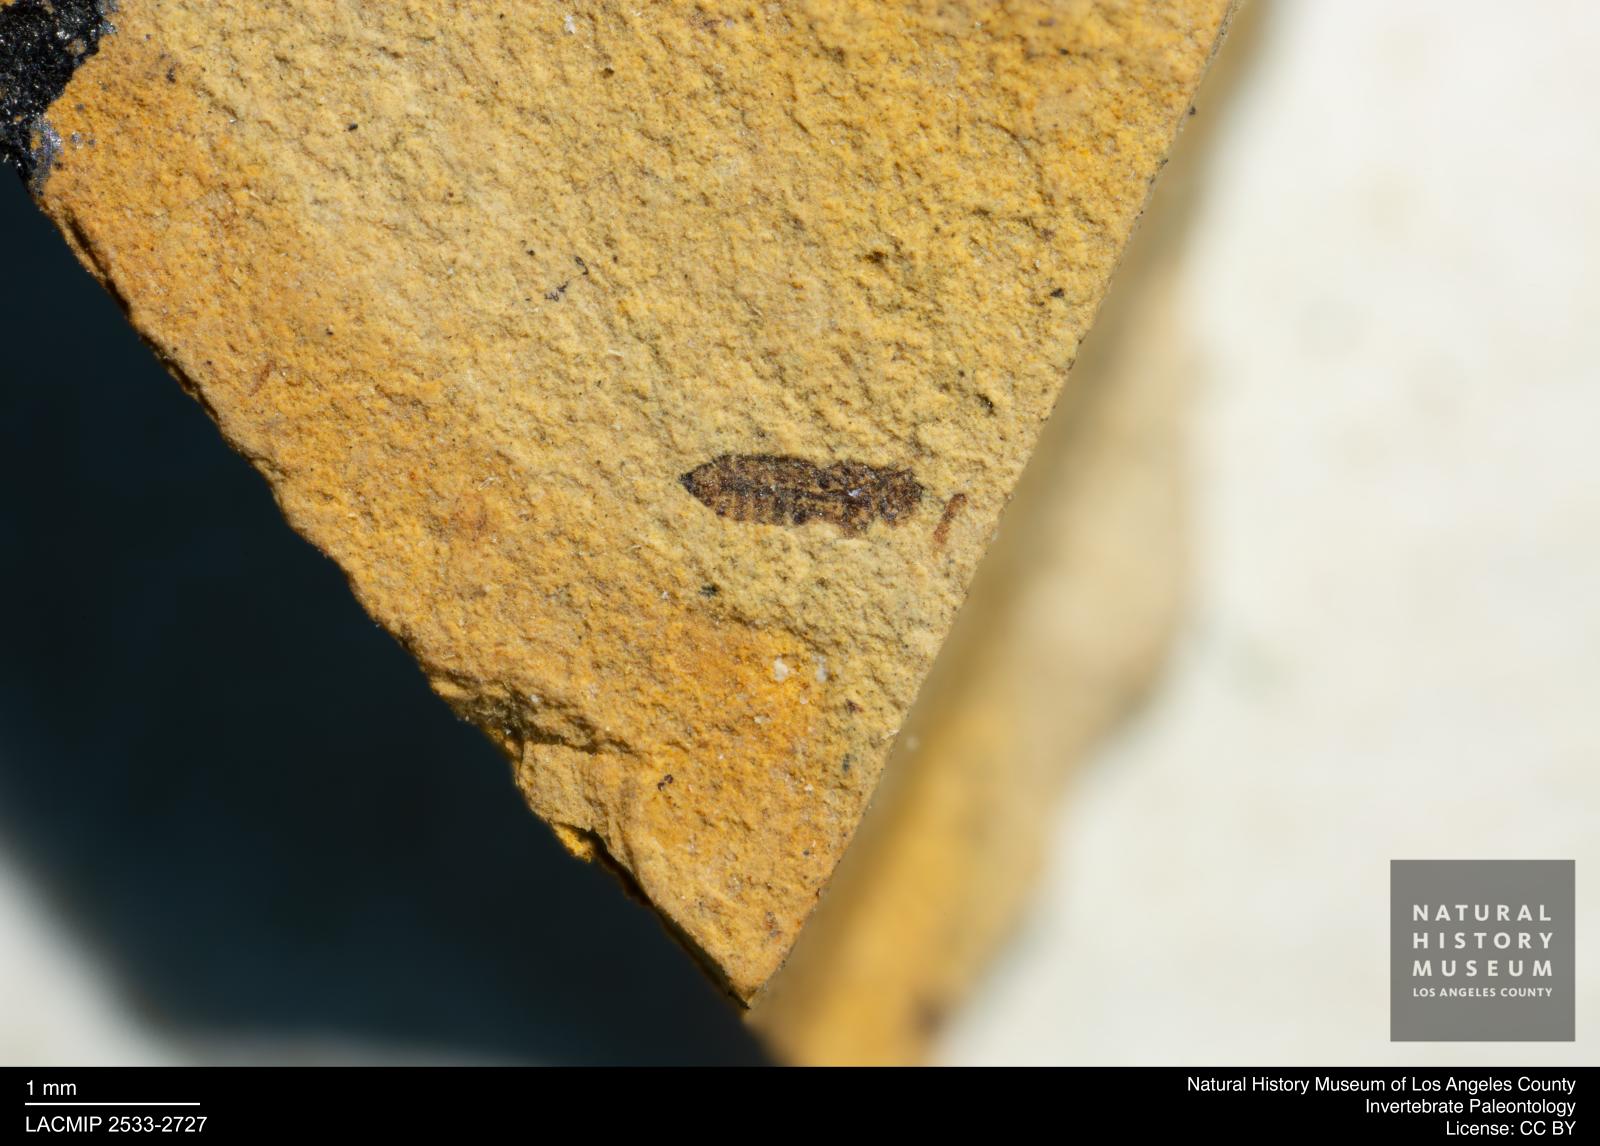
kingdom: Animalia
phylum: Arthropoda
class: Insecta
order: Hymenoptera
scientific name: Hymenoptera
